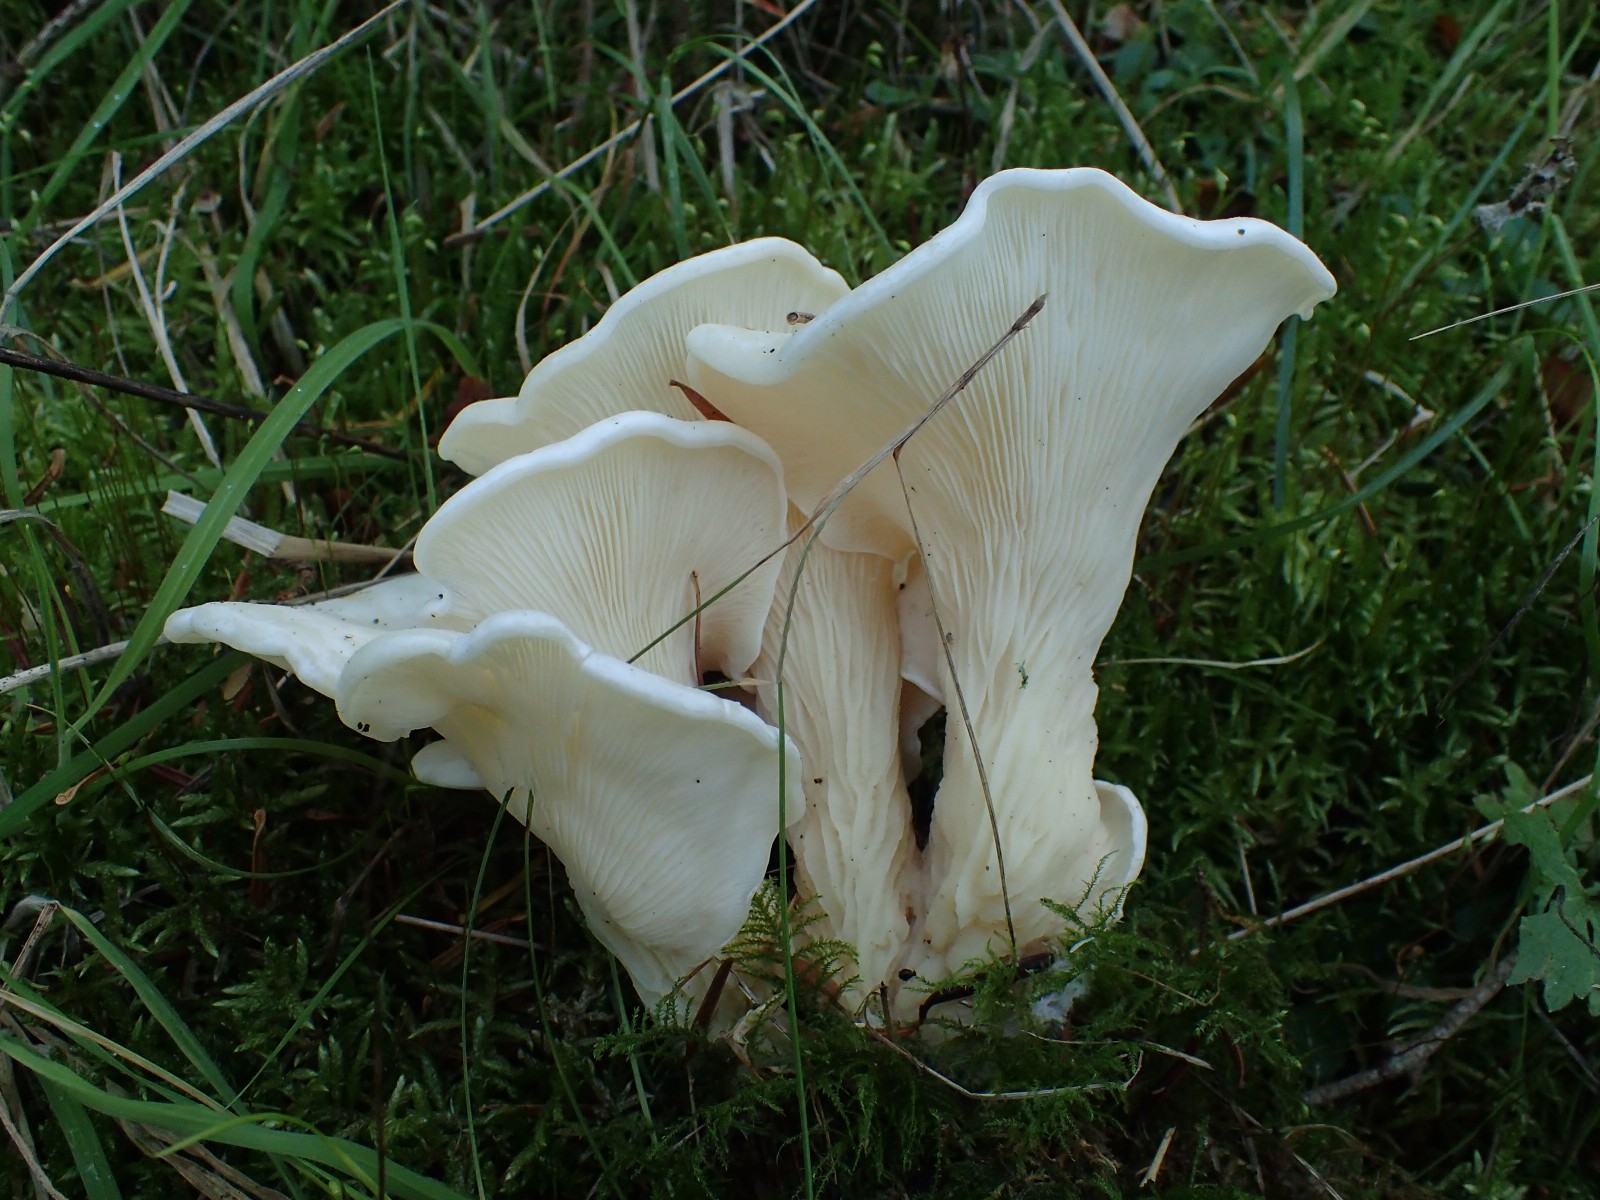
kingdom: Fungi
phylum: Basidiomycota
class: Agaricomycetes
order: Agaricales
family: Marasmiaceae
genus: Pleurocybella
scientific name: Pleurocybella porrigens
